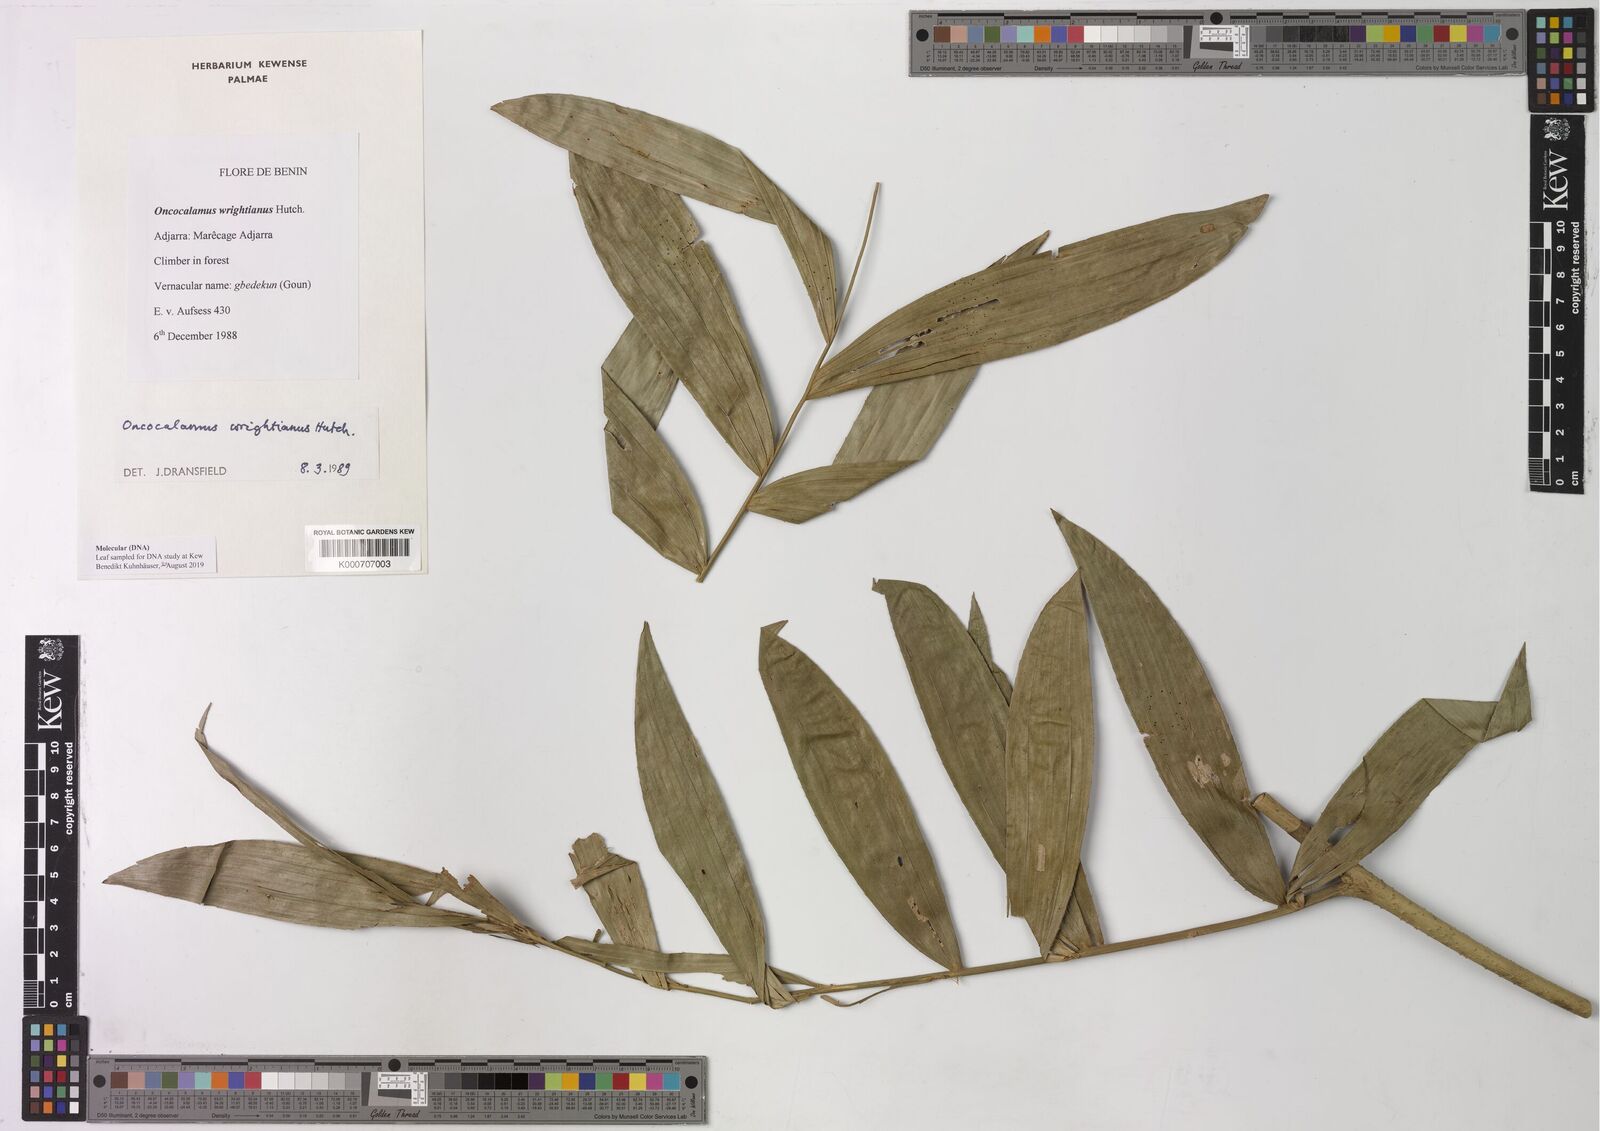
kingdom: Plantae
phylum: Tracheophyta
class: Liliopsida
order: Arecales
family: Arecaceae
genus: Oncocalamus
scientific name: Oncocalamus wrightianus
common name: Rattan
